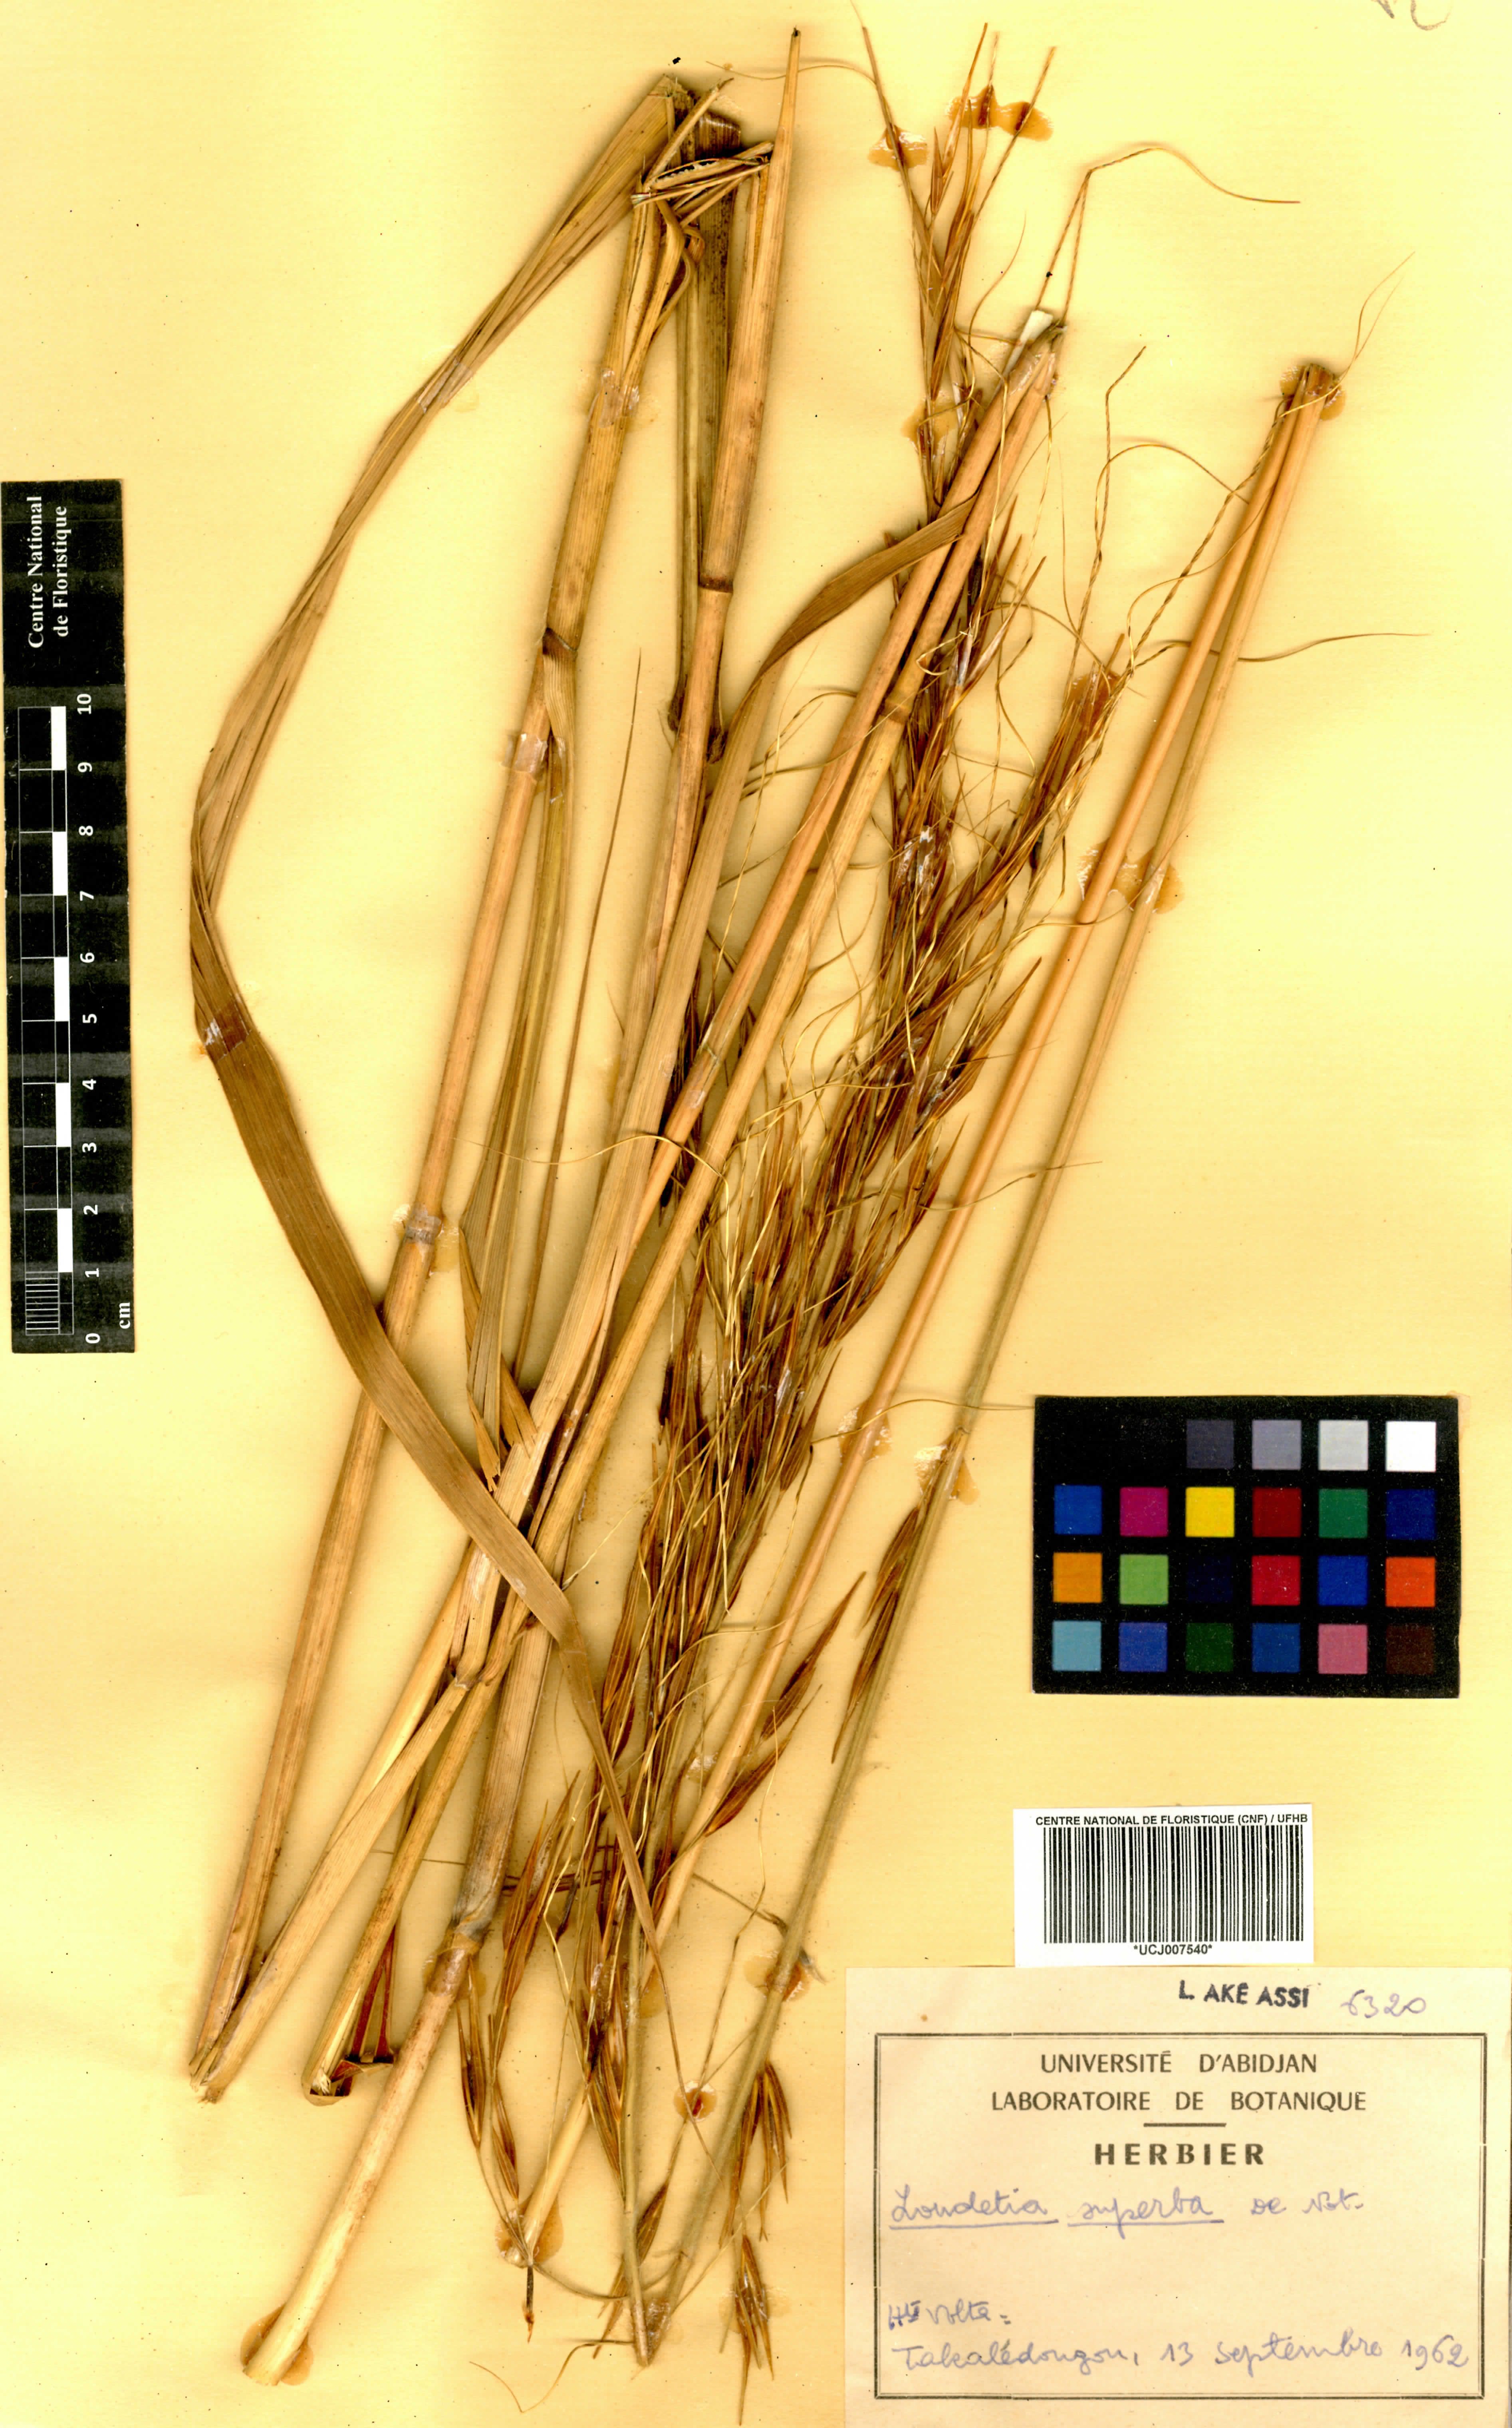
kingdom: Plantae
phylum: Tracheophyta
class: Liliopsida
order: Poales
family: Poaceae
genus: Tristachya
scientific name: Tristachya superba
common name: Giant trident grass
